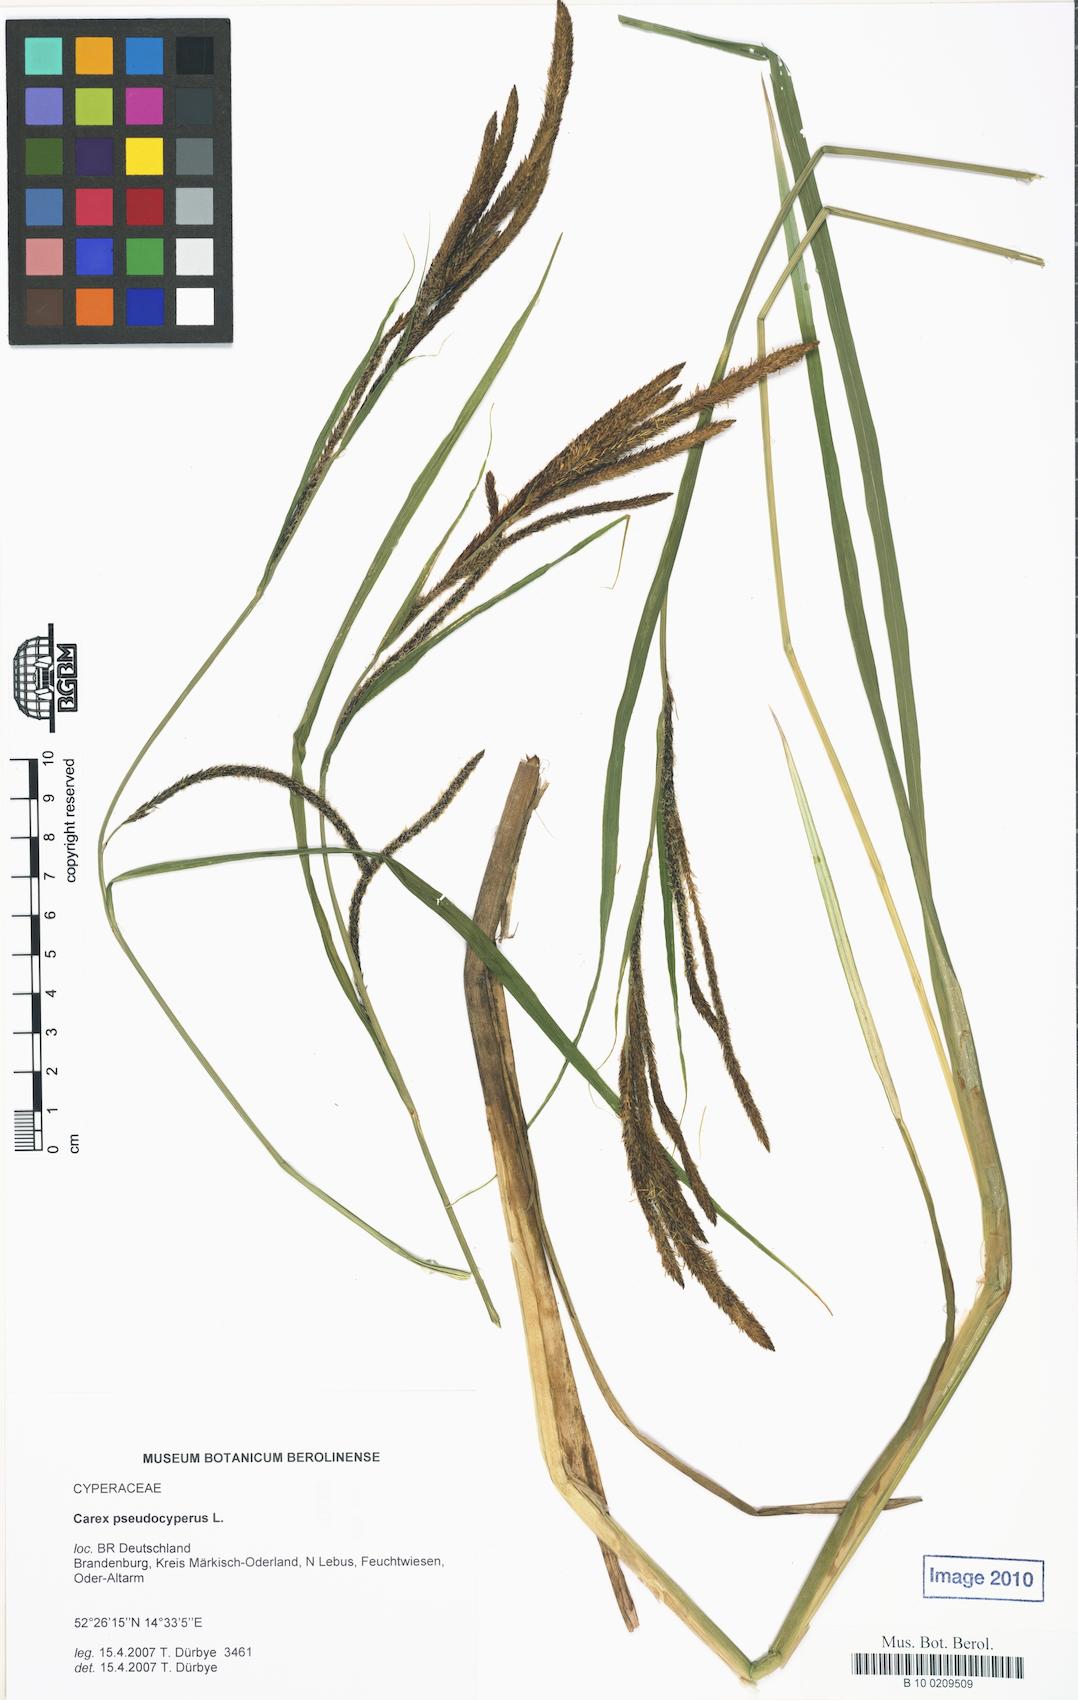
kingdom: Plantae
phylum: Tracheophyta
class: Liliopsida
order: Poales
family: Cyperaceae
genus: Carex
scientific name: Carex pseudocyperus
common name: Cyperus sedge
